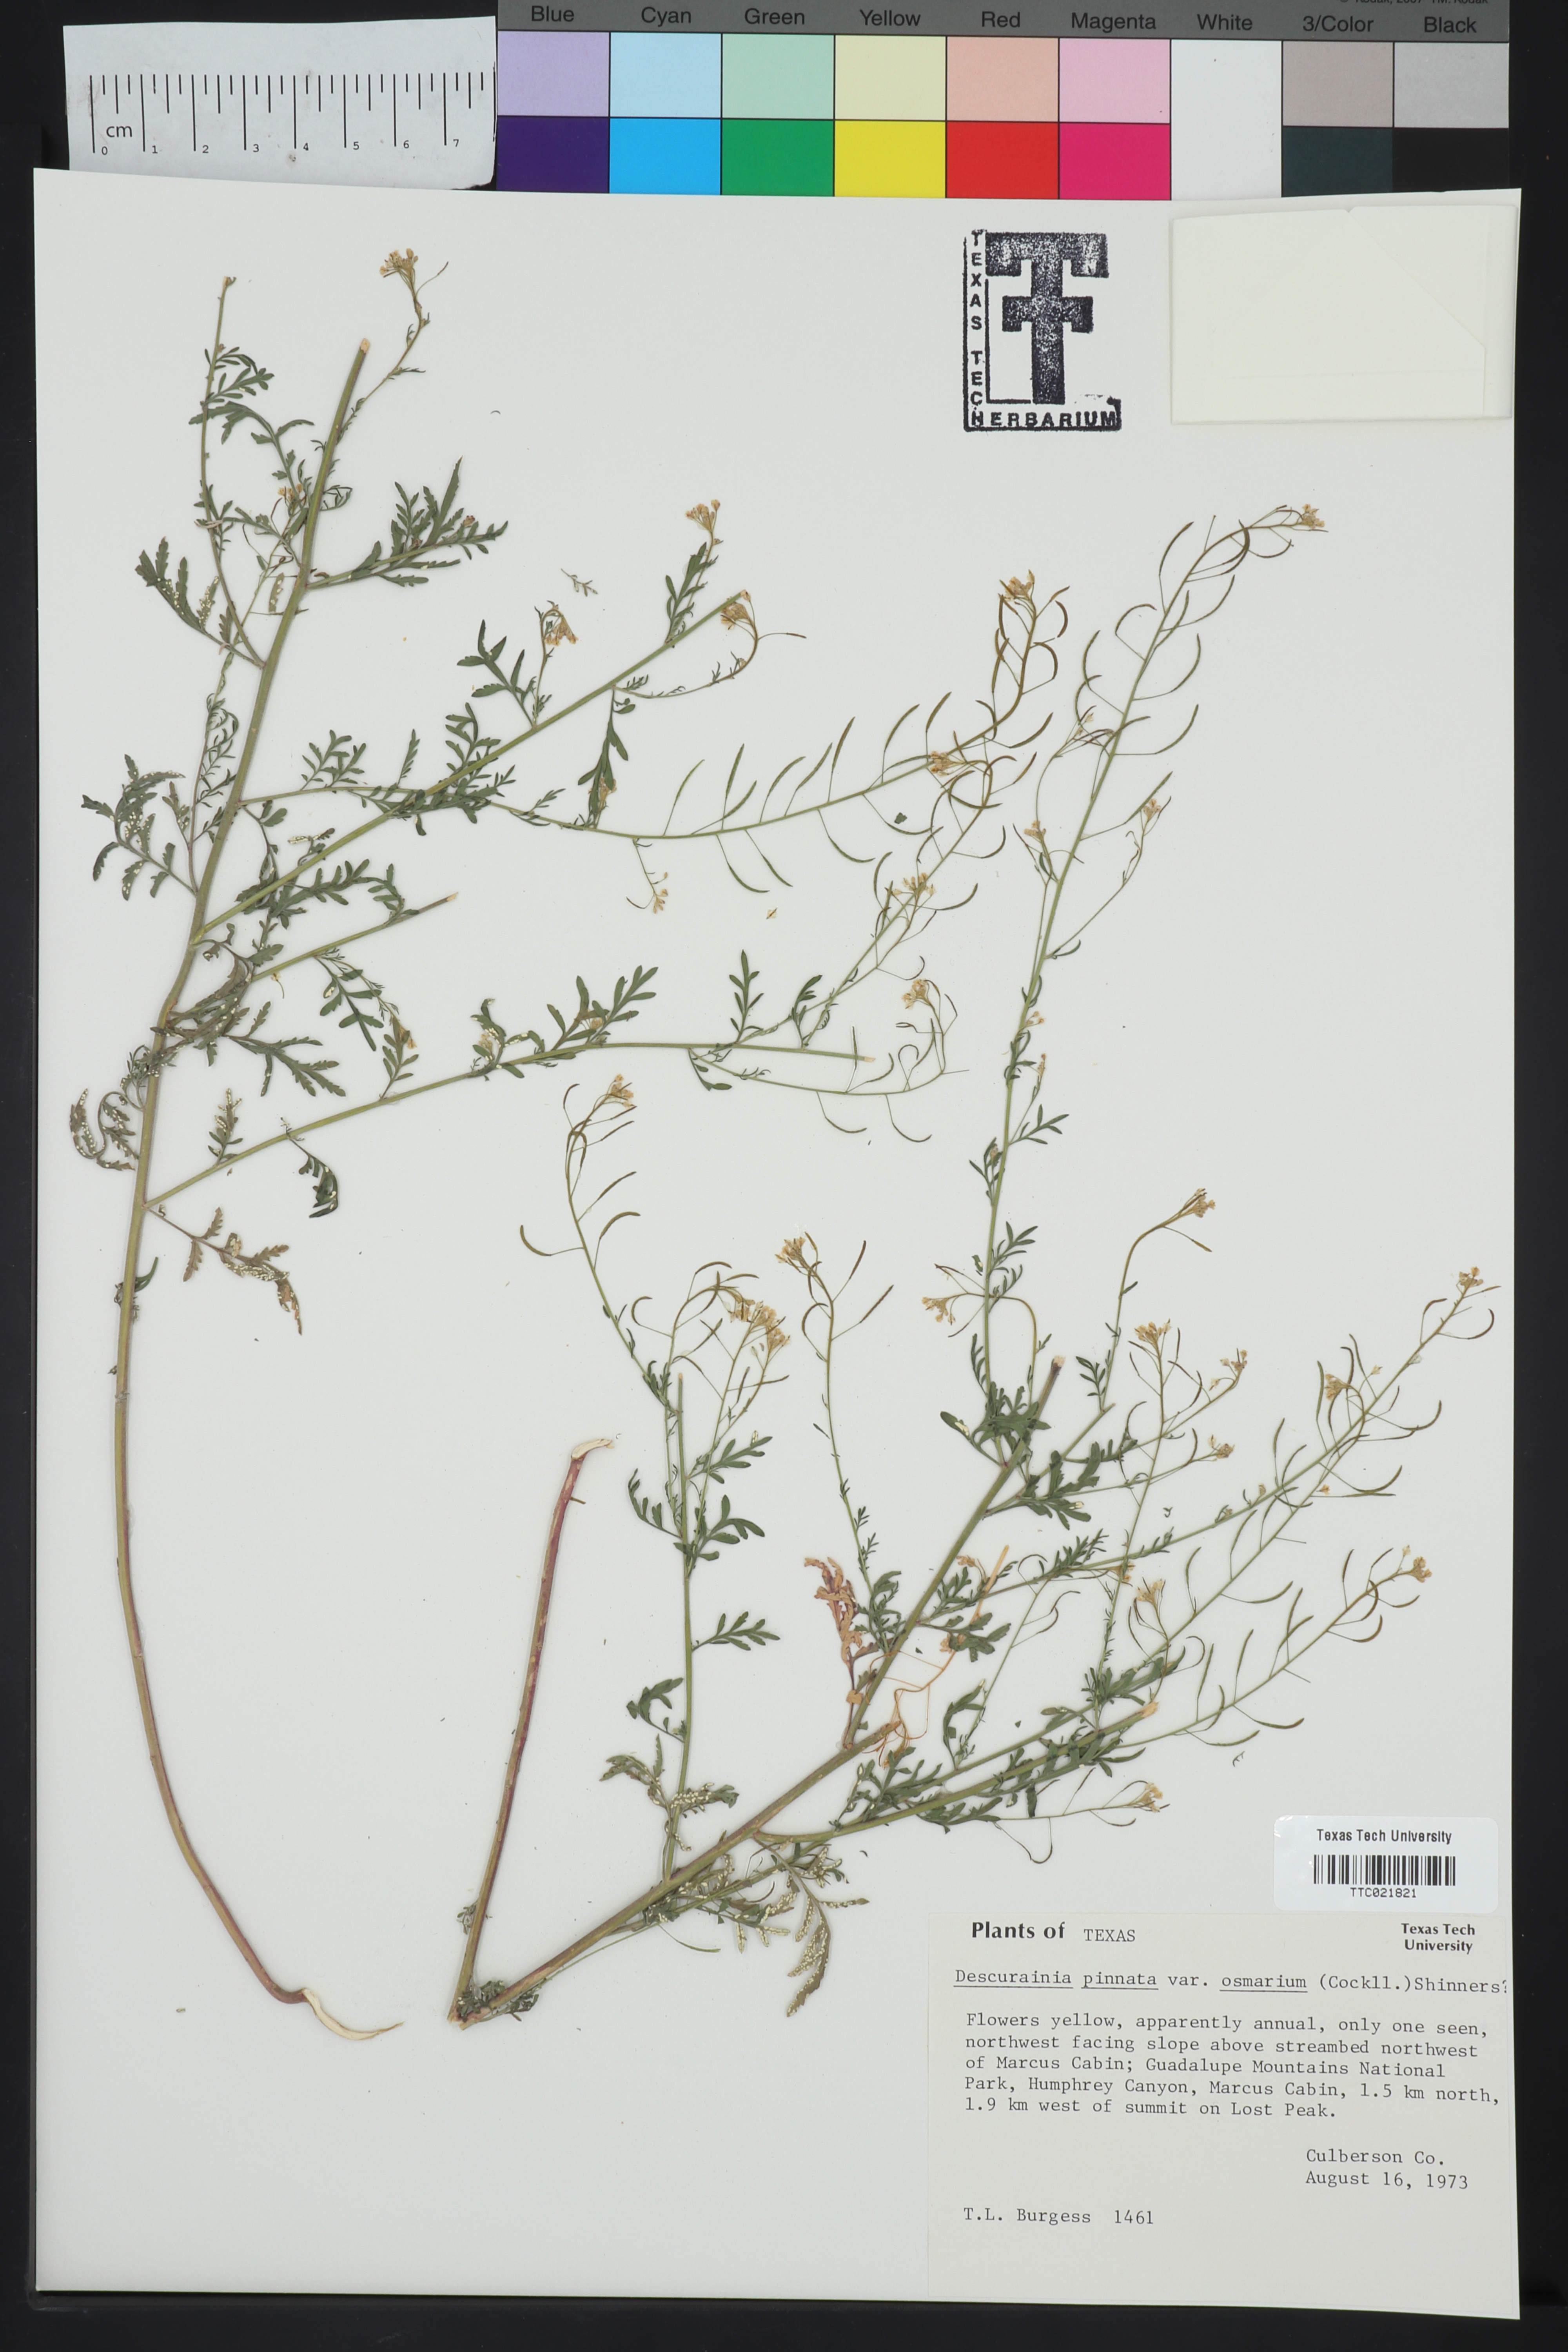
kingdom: Plantae
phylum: Tracheophyta
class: Magnoliopsida
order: Brassicales
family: Brassicaceae
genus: Descurainia
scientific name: Descurainia pinnata
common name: Western tansy mustard
